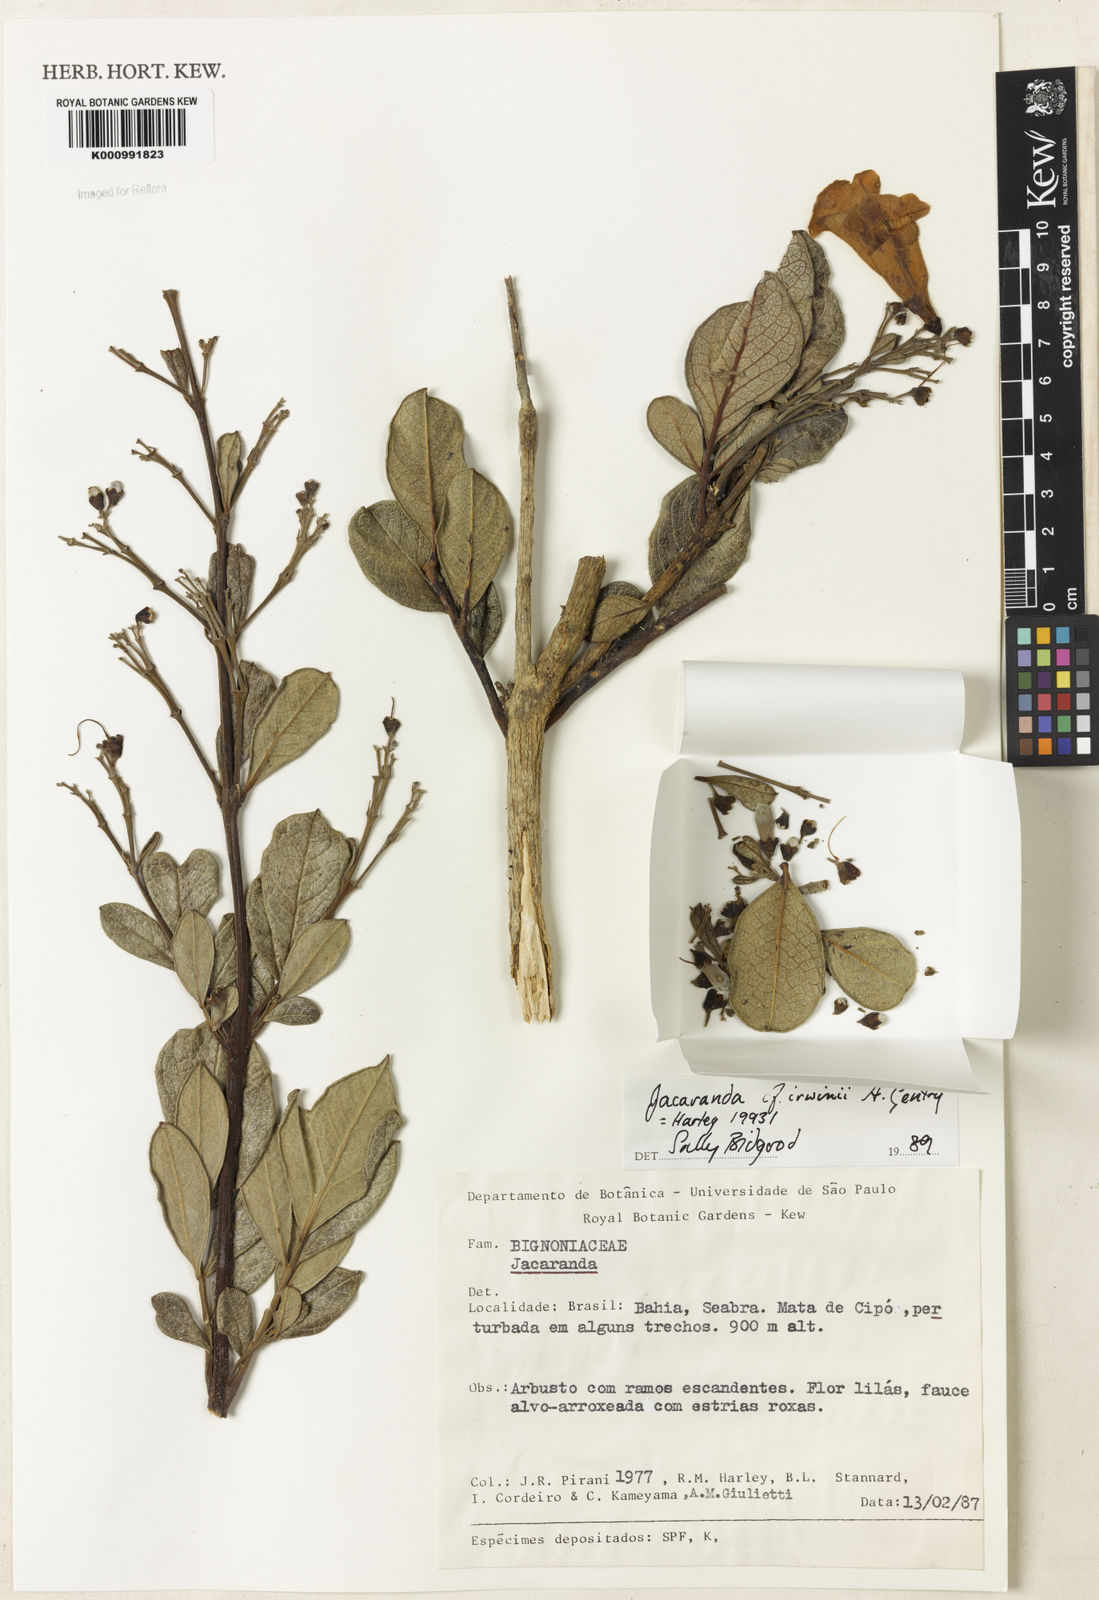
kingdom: Plantae
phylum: Tracheophyta
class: Magnoliopsida
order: Lamiales
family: Bignoniaceae
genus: Jacaranda
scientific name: Jacaranda irwinii
